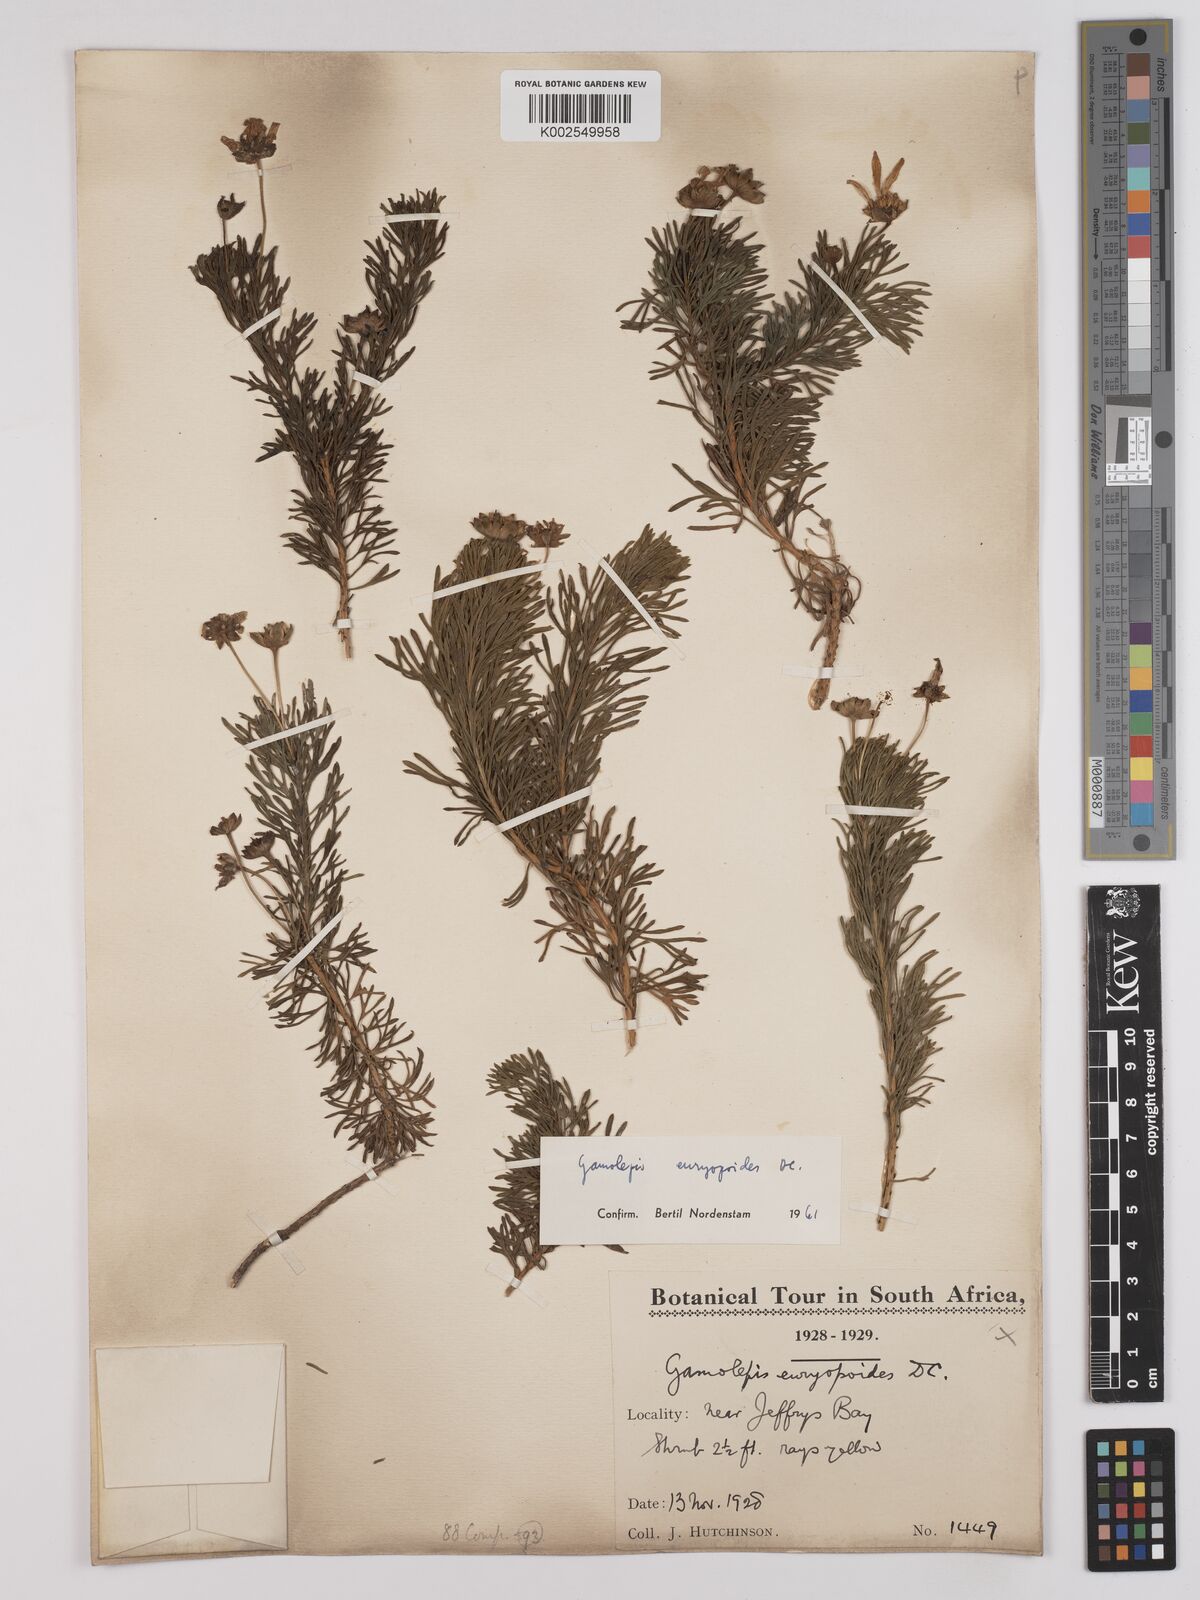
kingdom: Plantae
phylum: Tracheophyta
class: Magnoliopsida
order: Asterales
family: Asteraceae
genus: Euryops
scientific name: Euryops euryopoides
